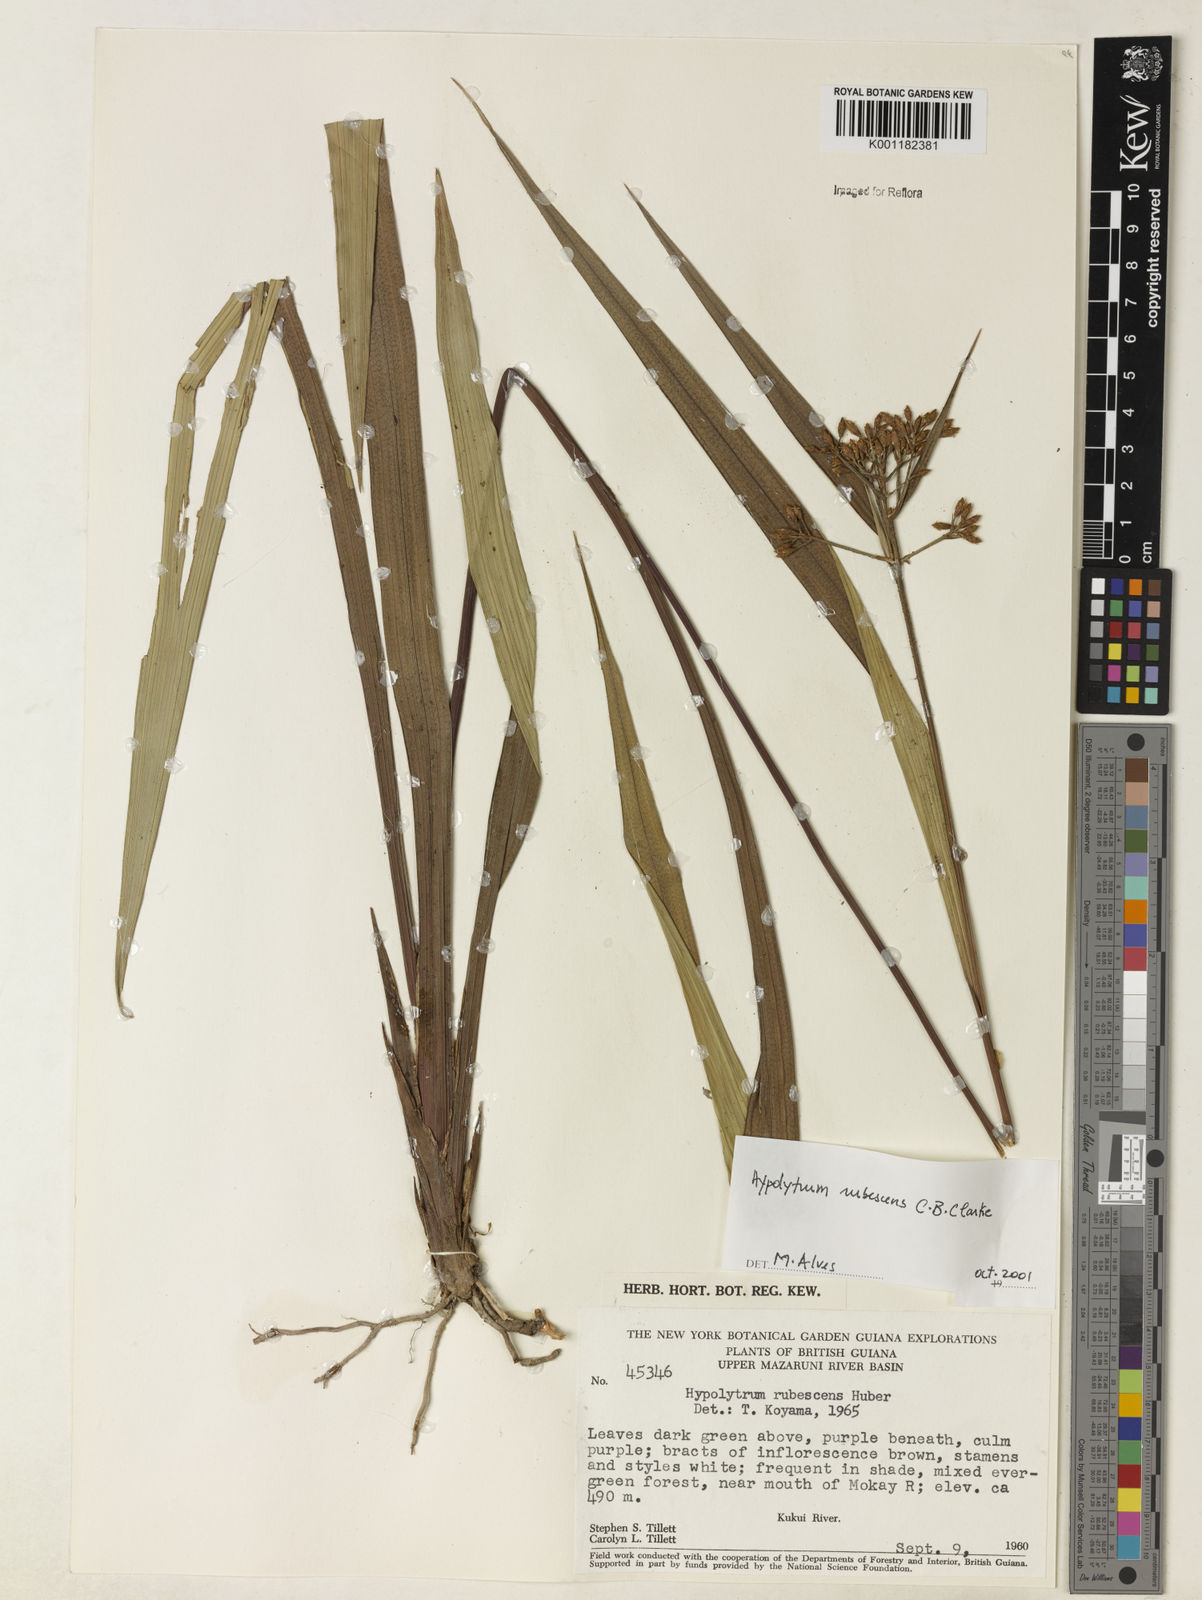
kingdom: Plantae
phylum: Tracheophyta
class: Liliopsida
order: Poales
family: Cyperaceae
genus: Hypolytrum
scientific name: Hypolytrum longifolium
